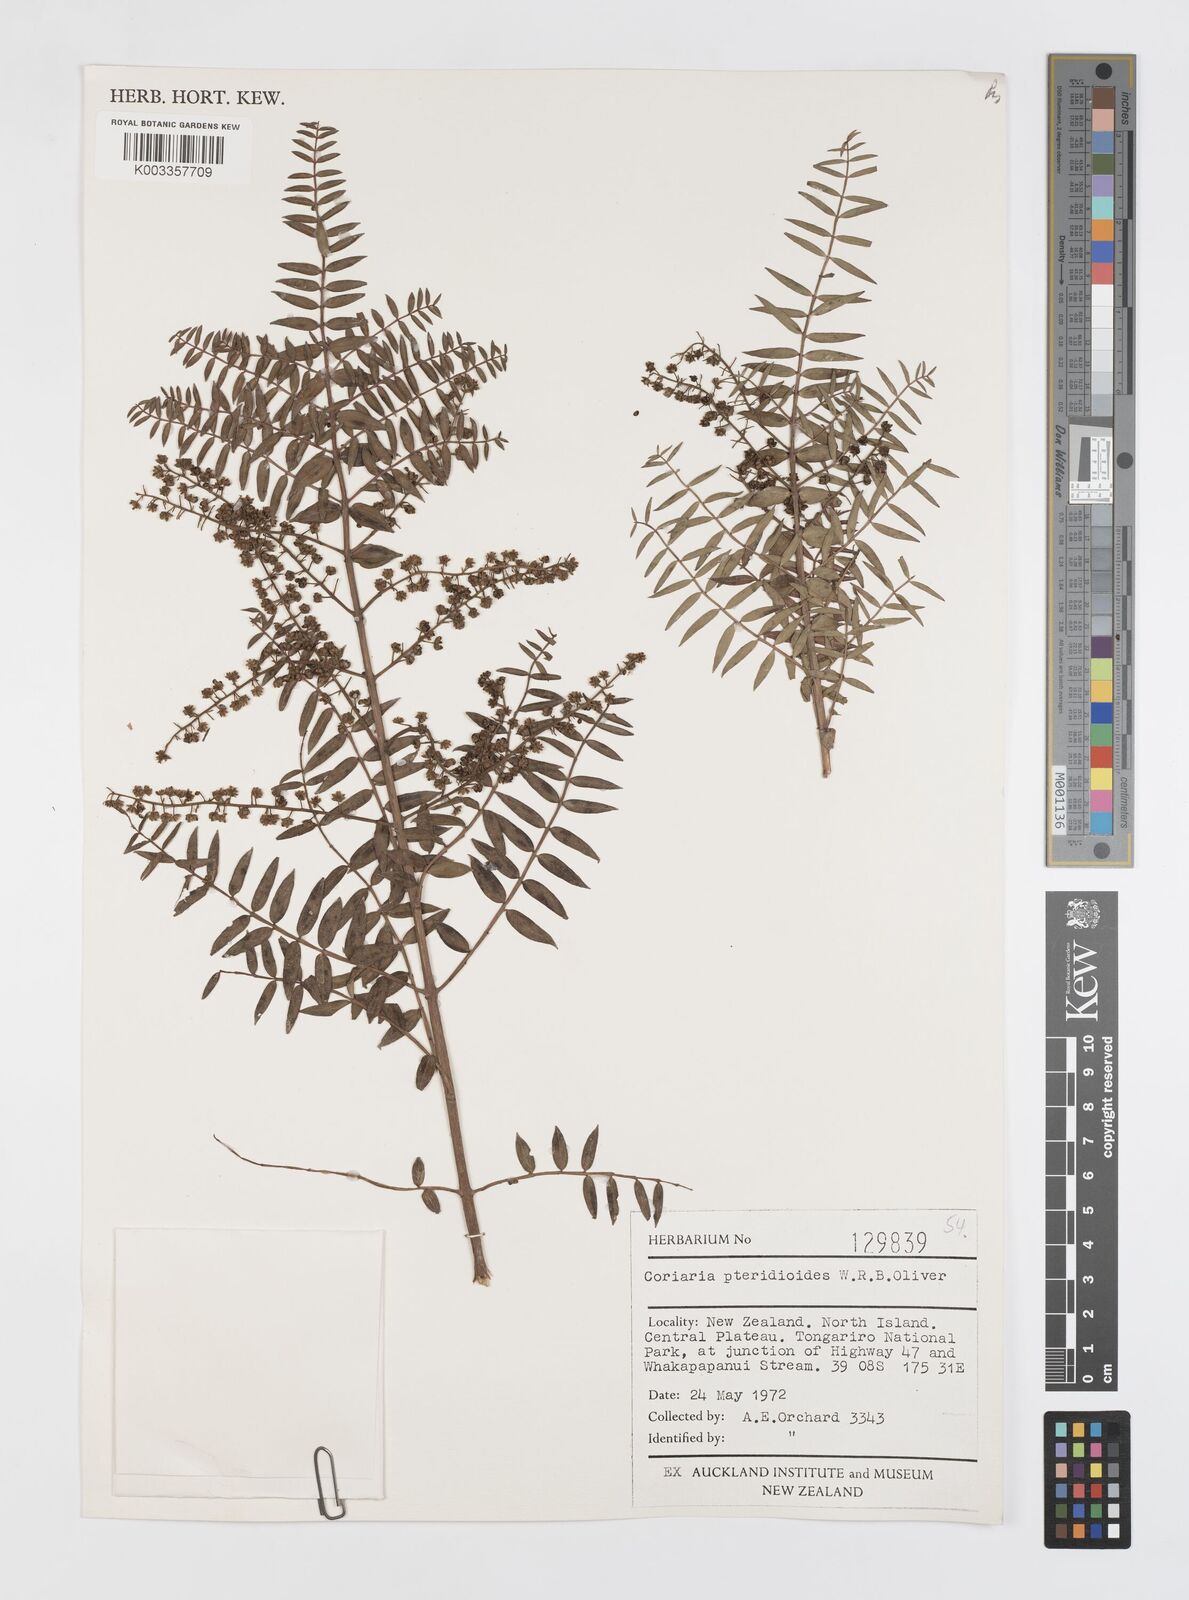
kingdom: Plantae
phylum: Tracheophyta
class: Magnoliopsida
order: Cucurbitales
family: Coriariaceae
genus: Coriaria
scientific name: Coriaria pteridoides
